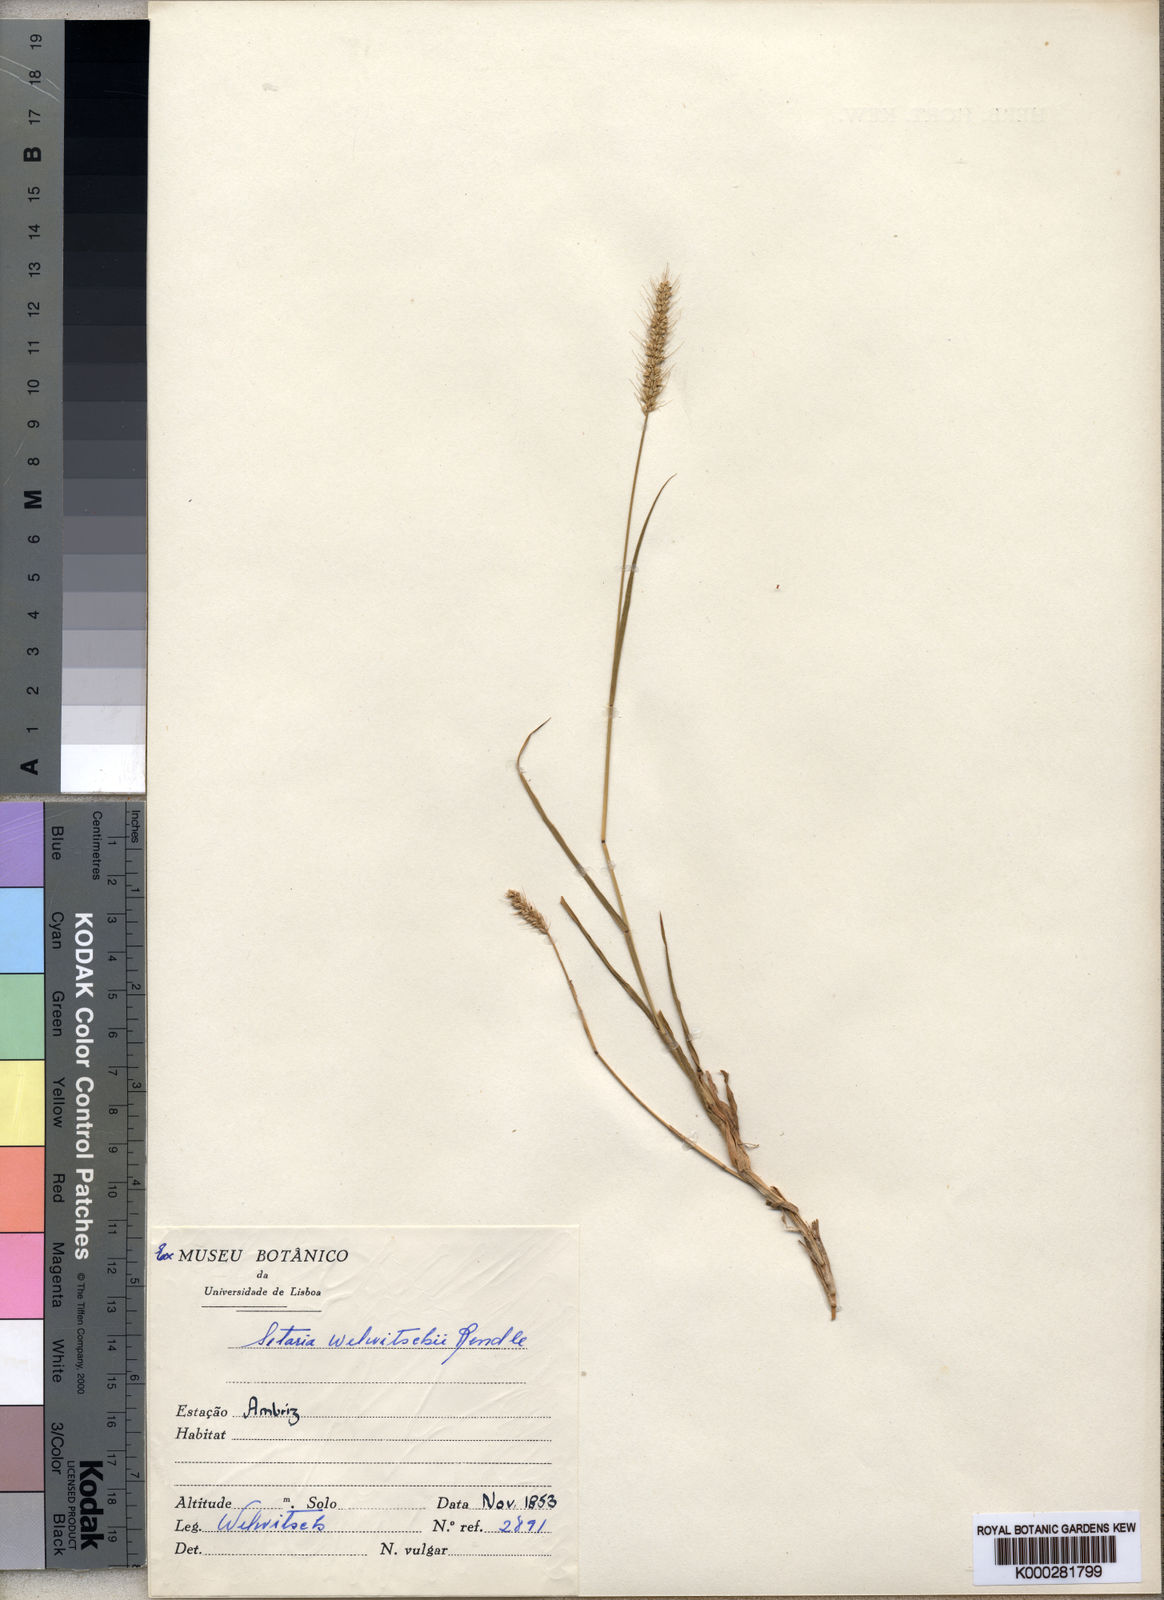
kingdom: Plantae
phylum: Tracheophyta
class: Liliopsida
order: Poales
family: Poaceae
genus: Setaria
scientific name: Setaria welwitschii
